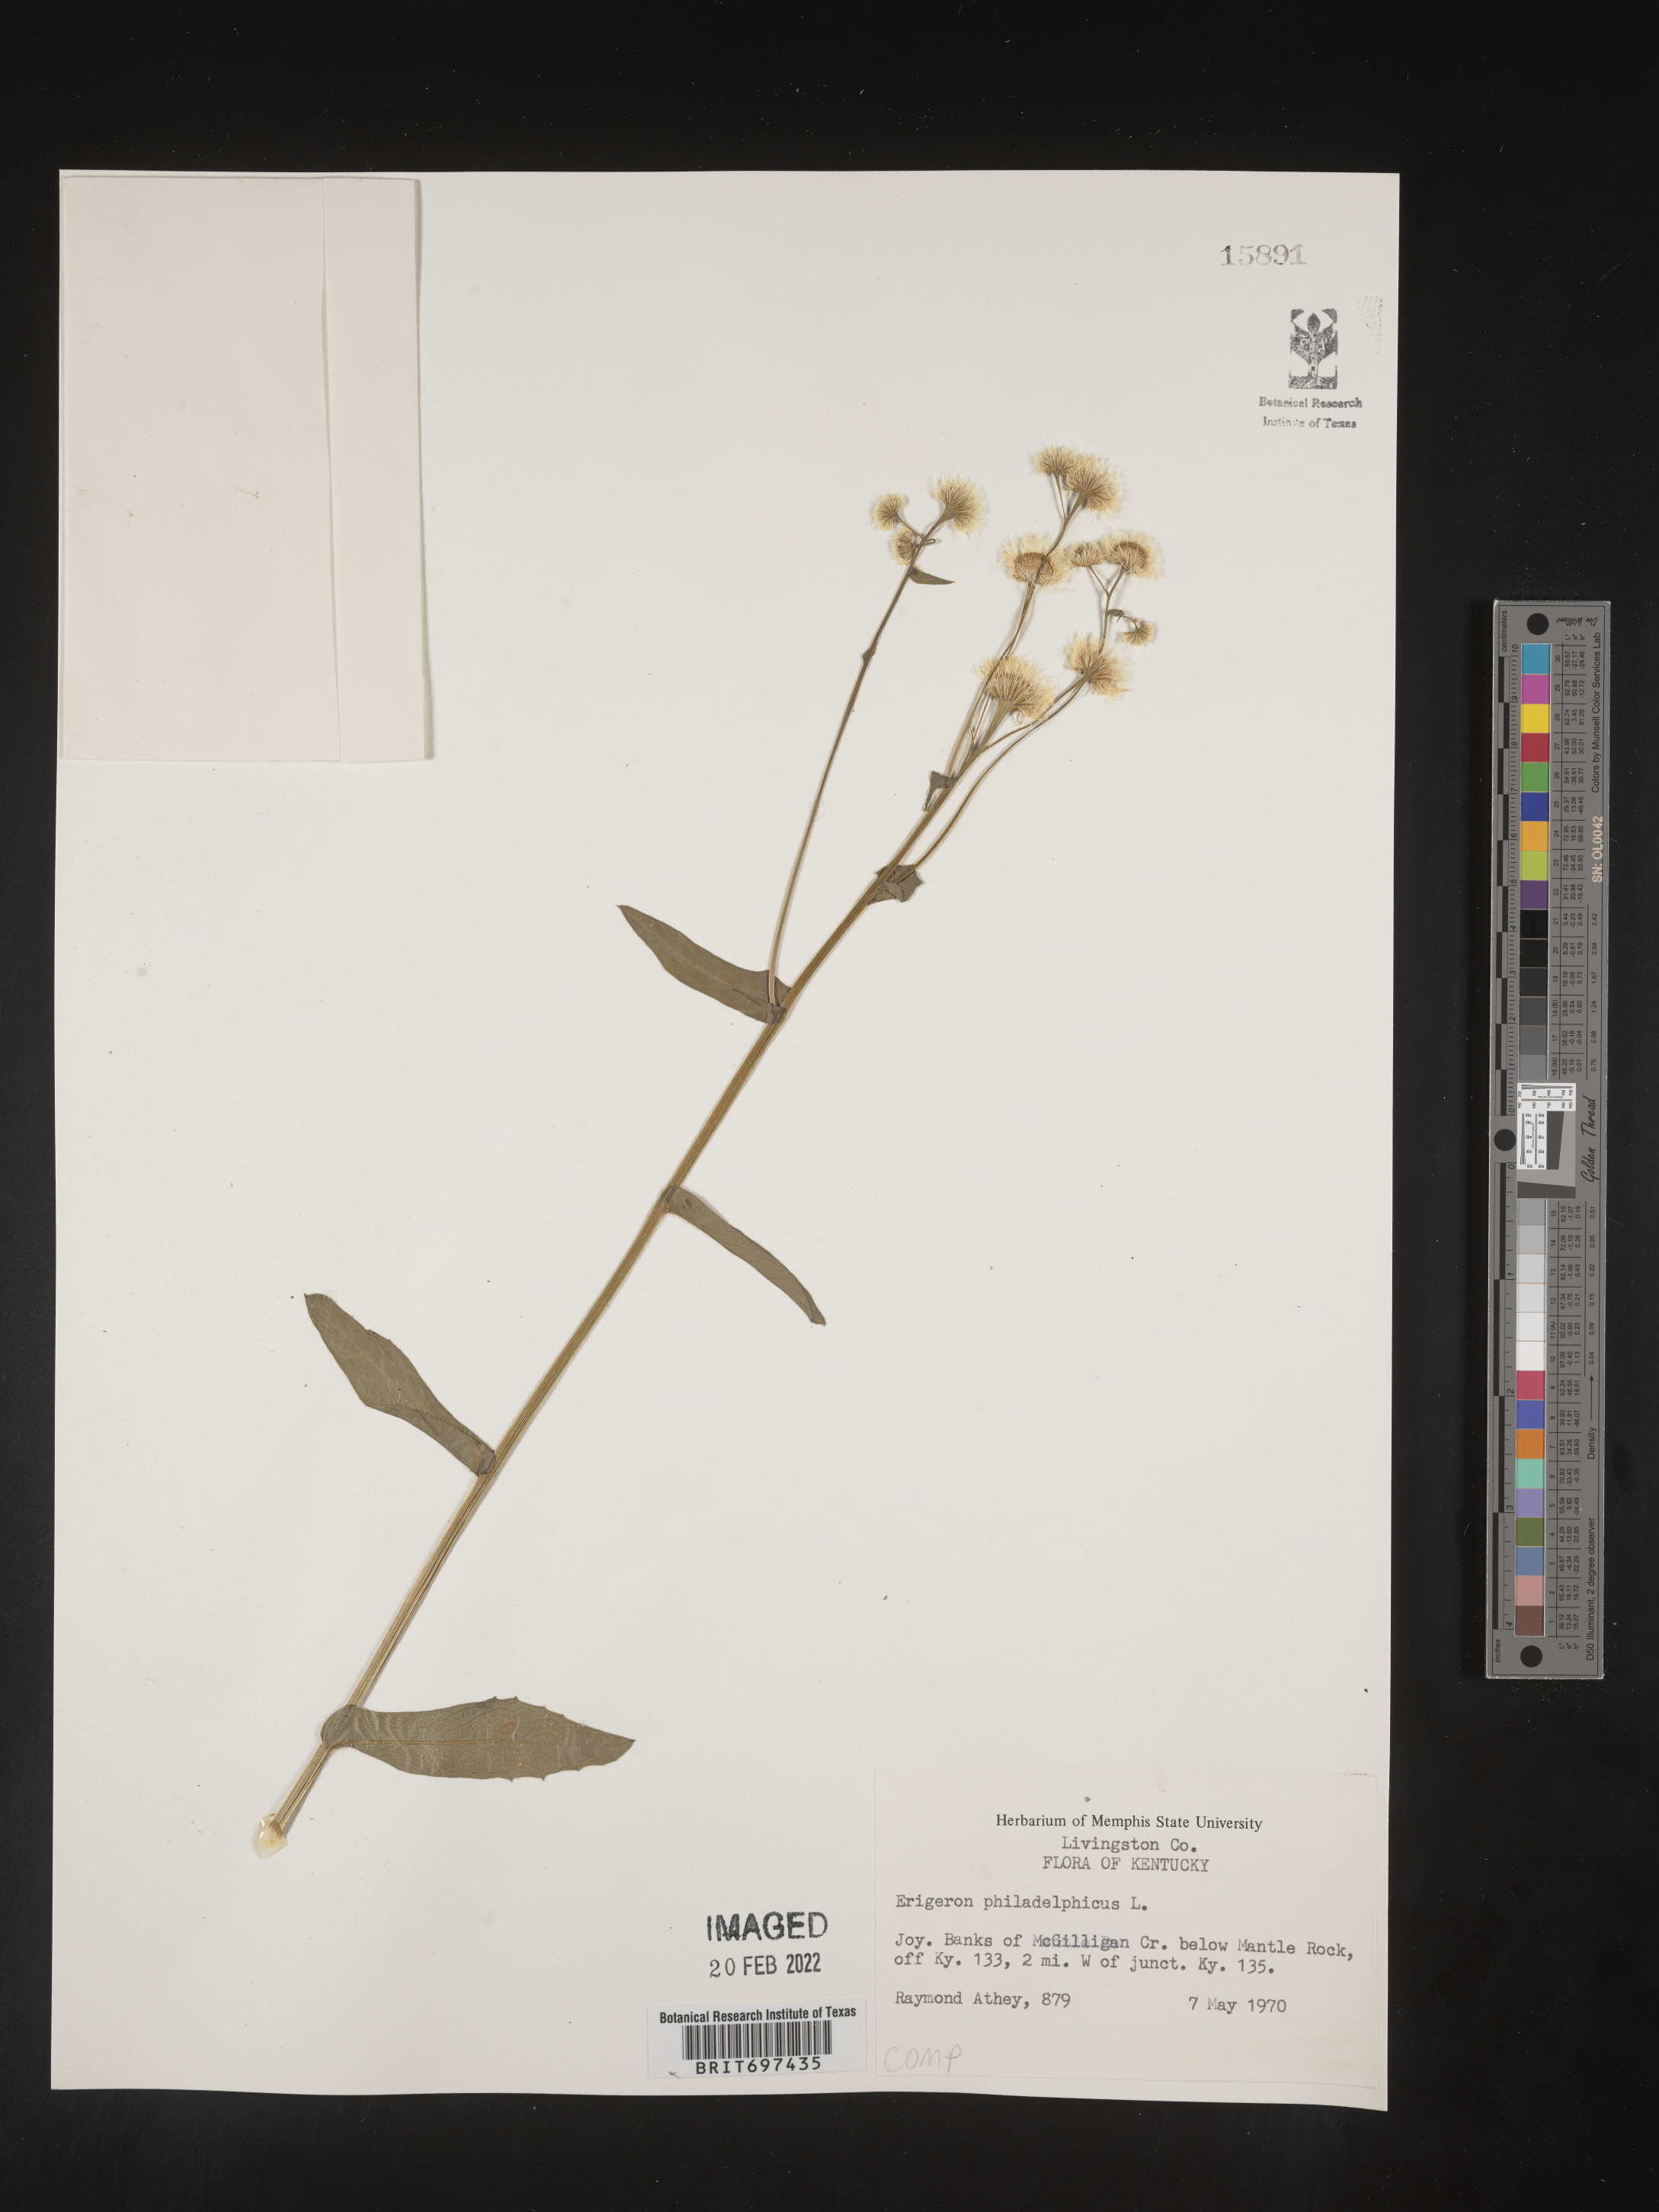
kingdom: Plantae
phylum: Tracheophyta
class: Magnoliopsida
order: Asterales
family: Asteraceae
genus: Erigeron
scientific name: Erigeron philadelphicus
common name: Robin's-plantain
